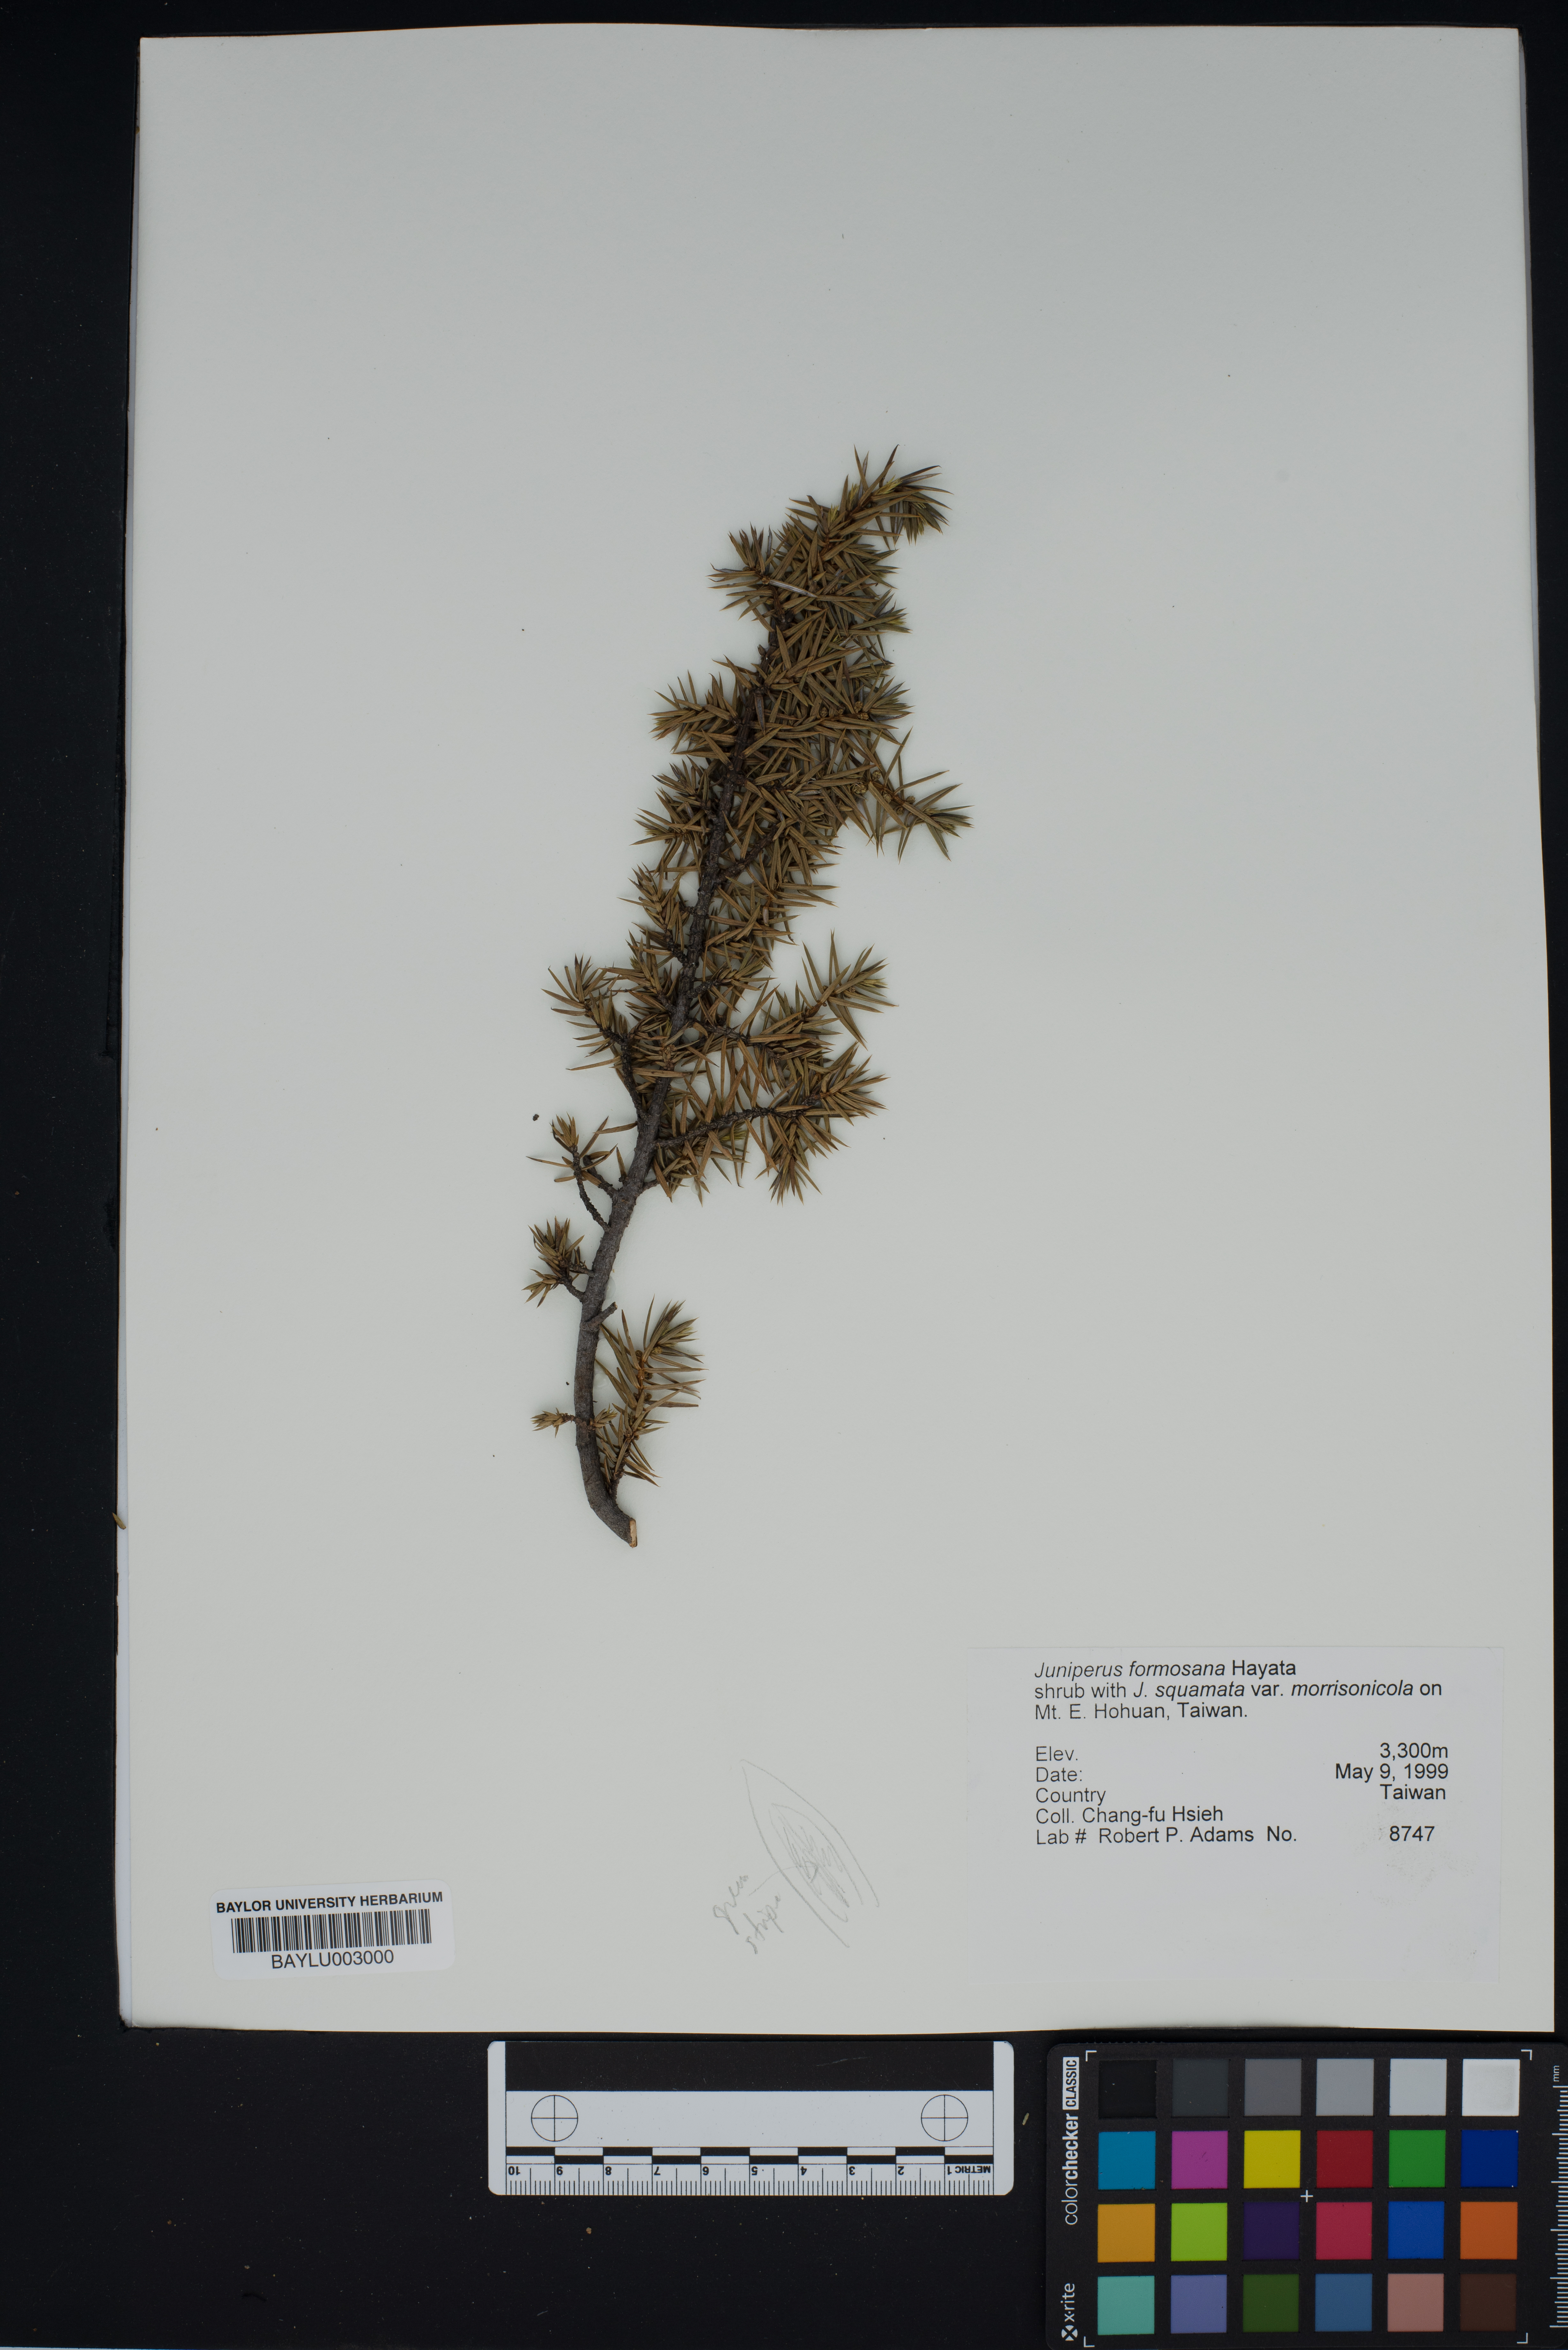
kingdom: Plantae
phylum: Tracheophyta
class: Pinopsida
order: Pinales
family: Cupressaceae
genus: Juniperus
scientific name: Juniperus formosana
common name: Formosan juniper
